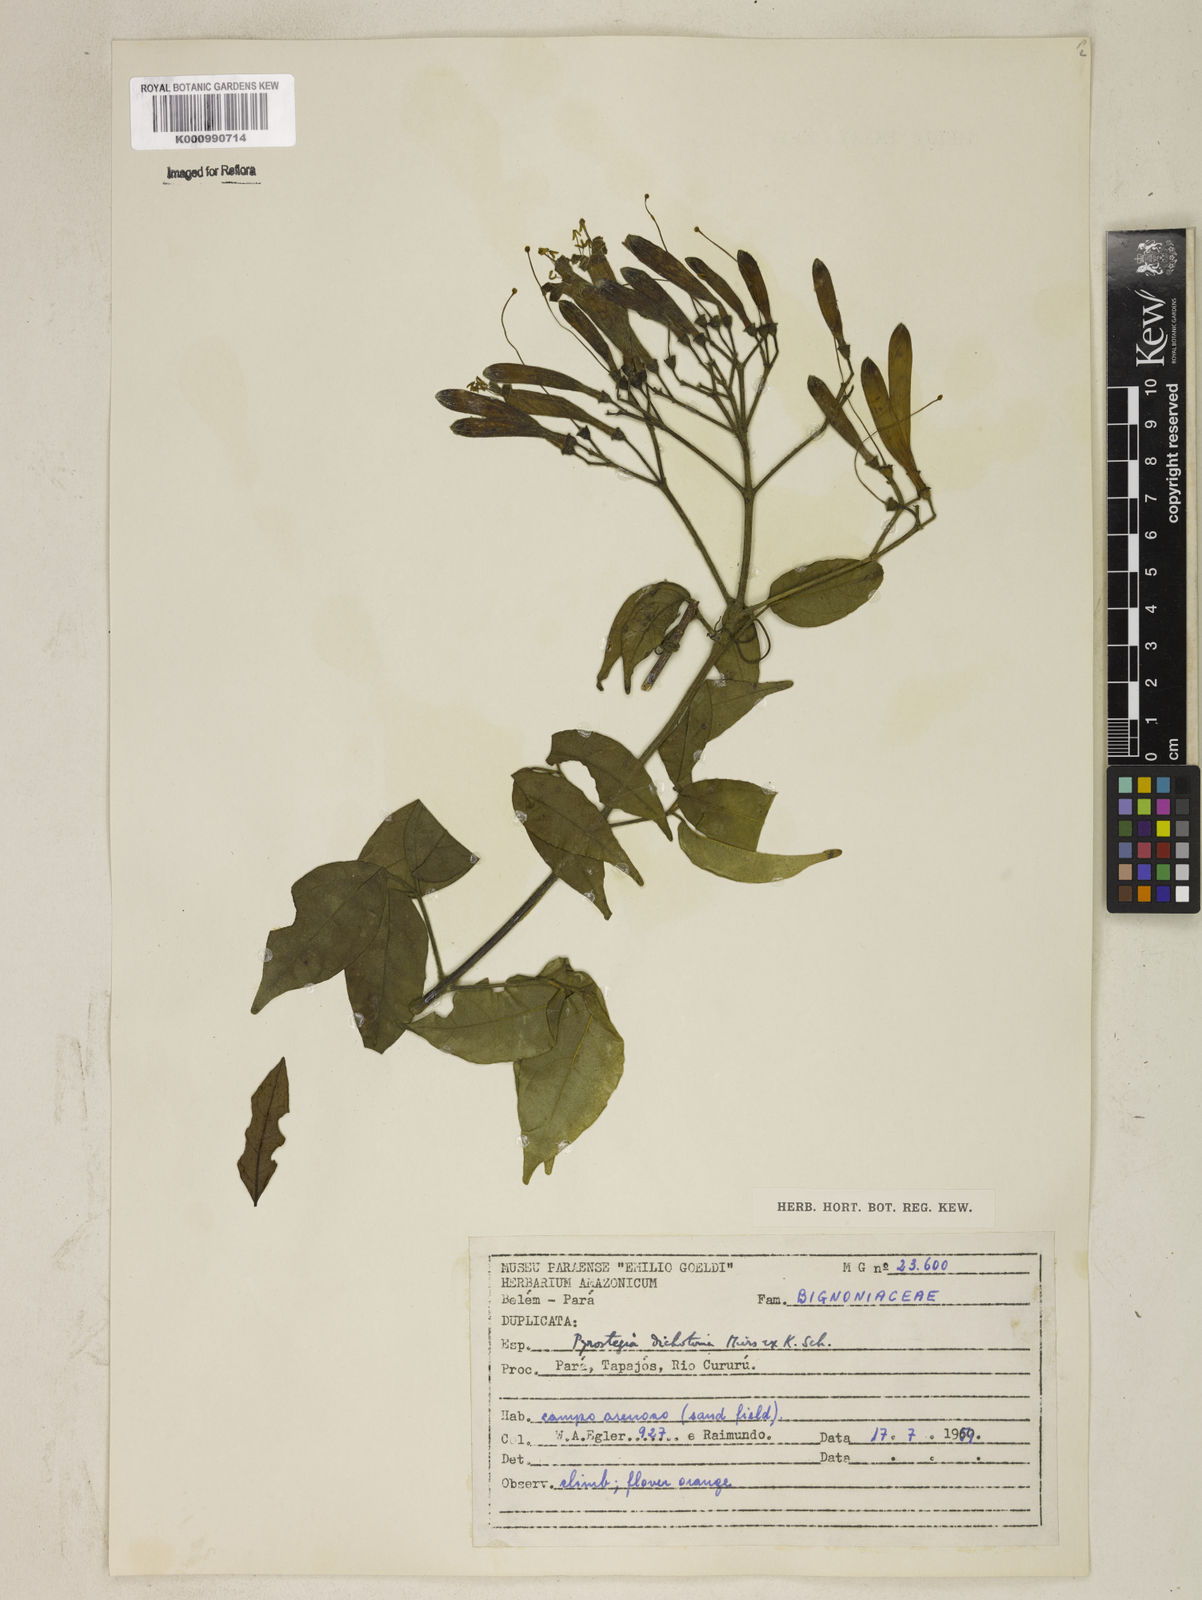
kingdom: Plantae
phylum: Tracheophyta
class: Magnoliopsida
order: Lamiales
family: Bignoniaceae
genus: Pyrostegia
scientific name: Pyrostegia
